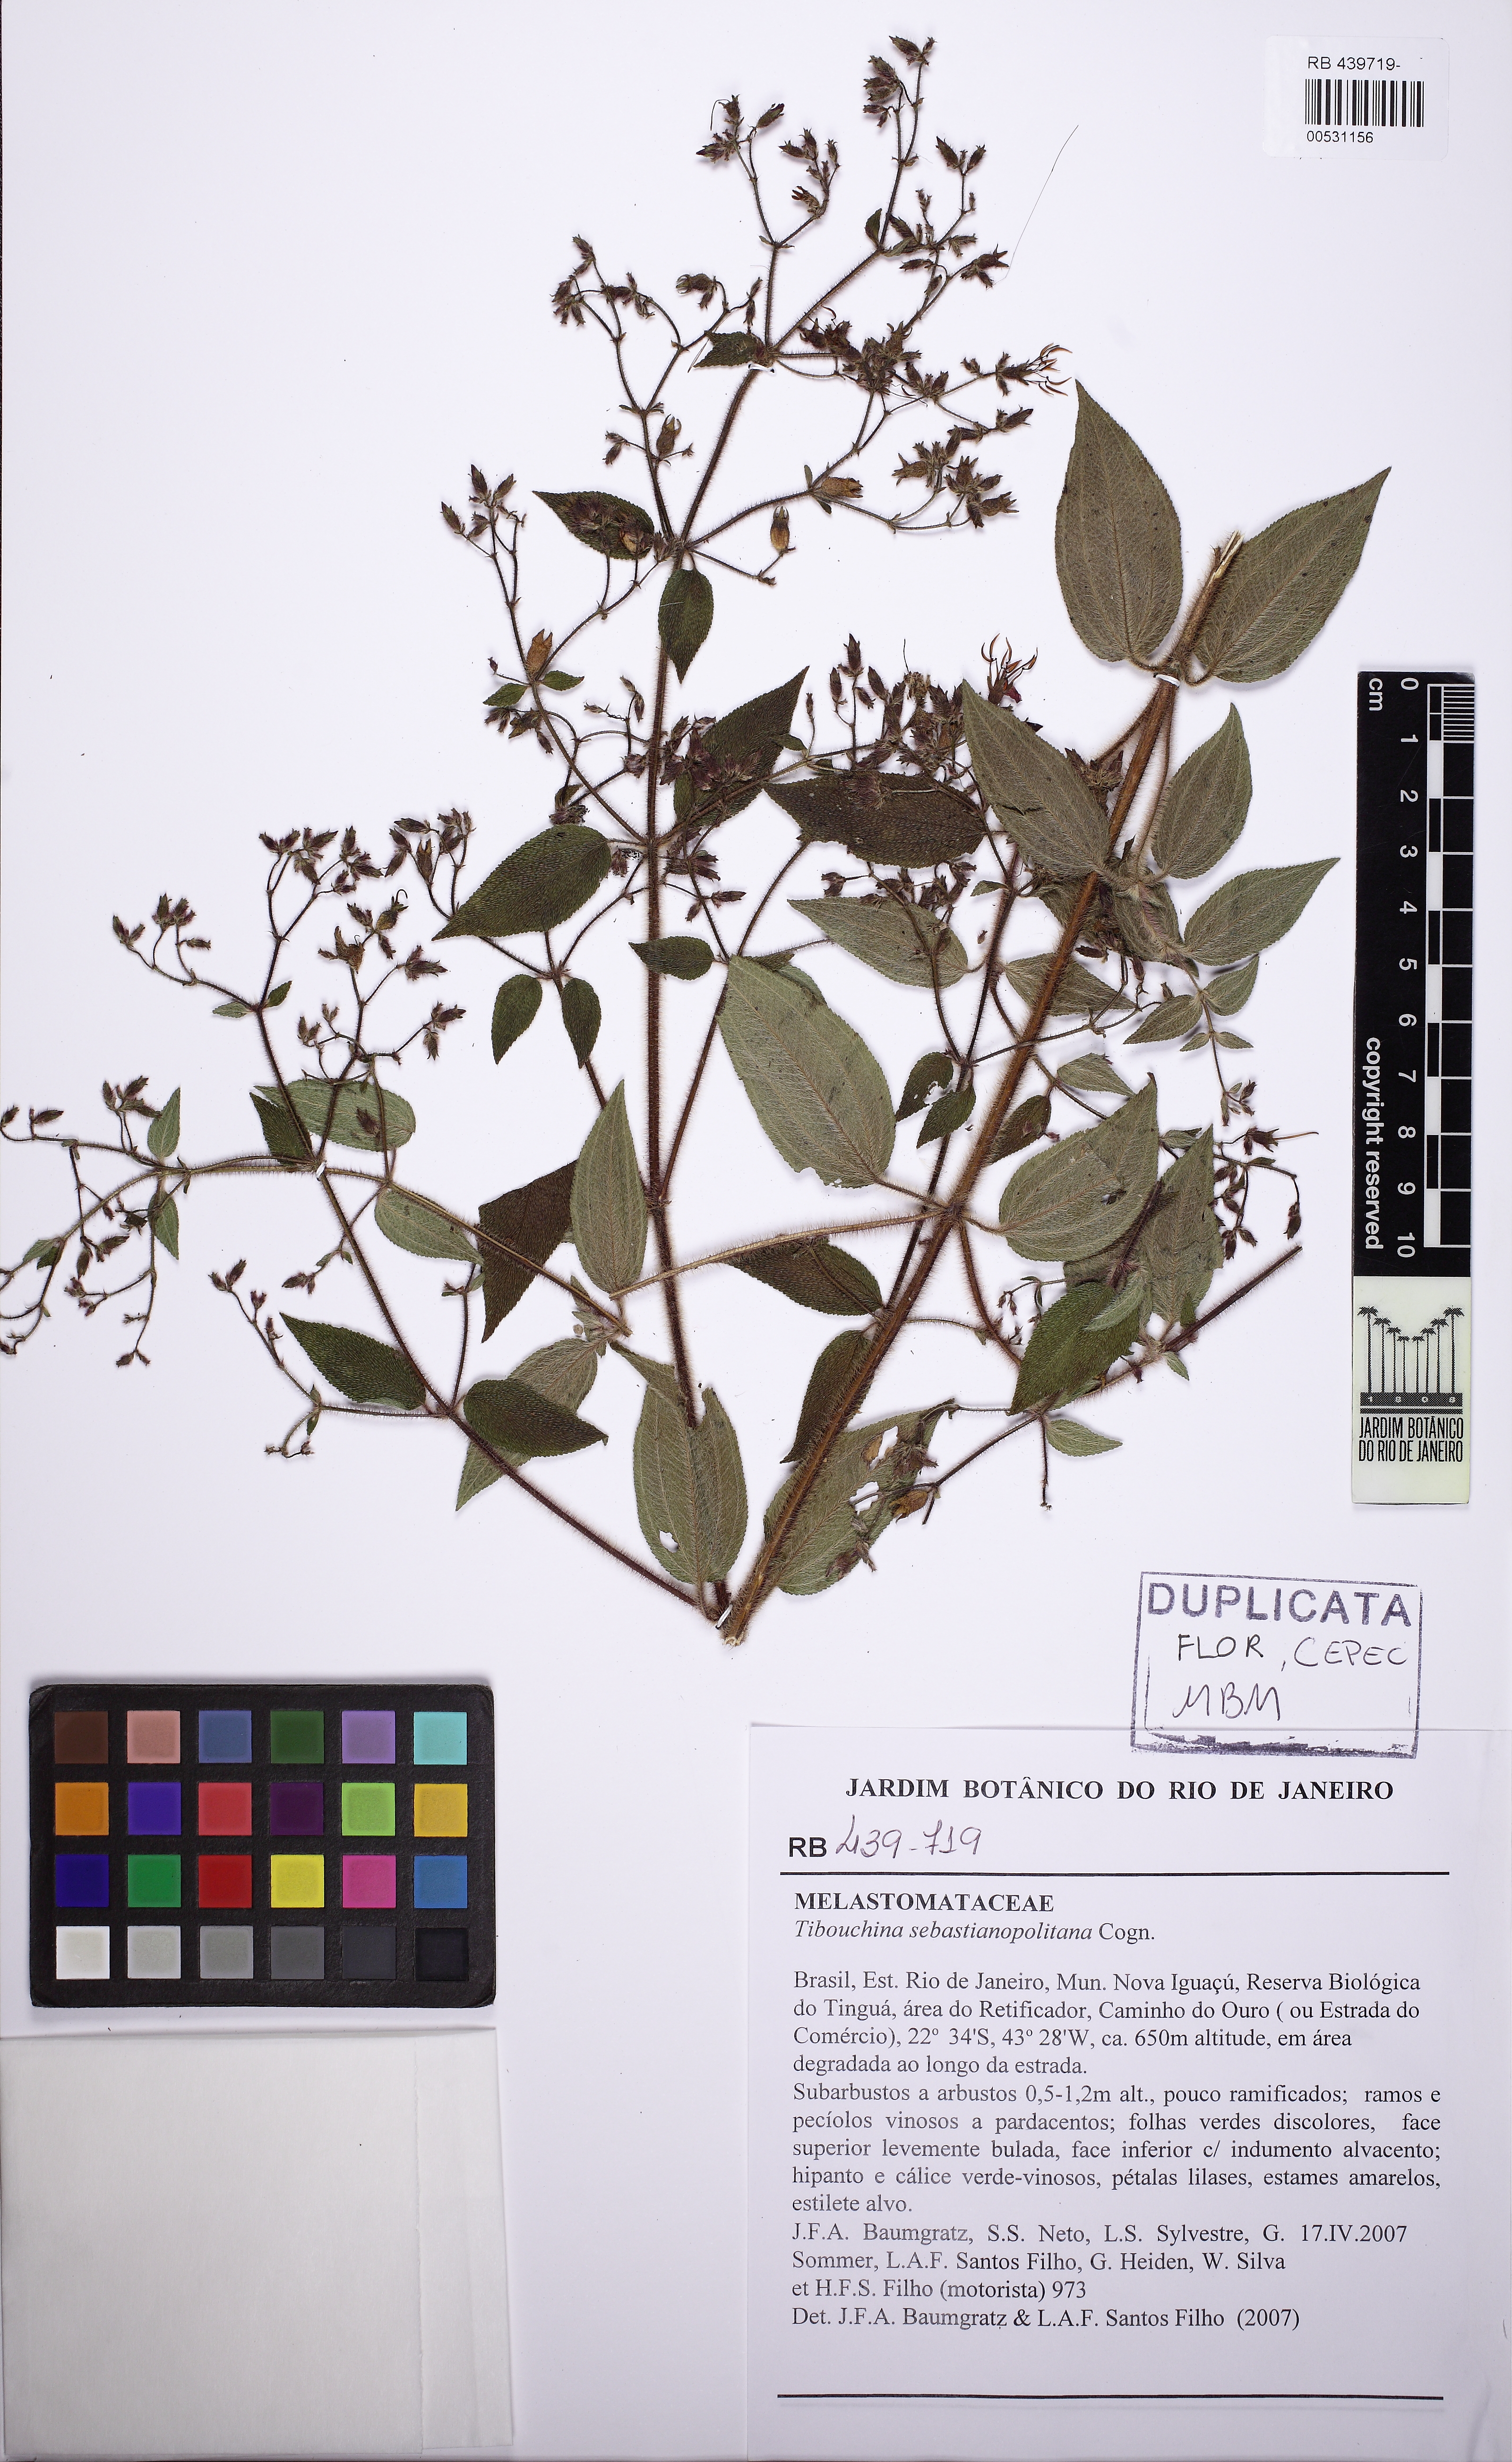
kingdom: Plantae
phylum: Tracheophyta
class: Magnoliopsida
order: Myrtales
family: Melastomataceae
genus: Chaetogastra
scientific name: Chaetogastra sebastianopolitana
